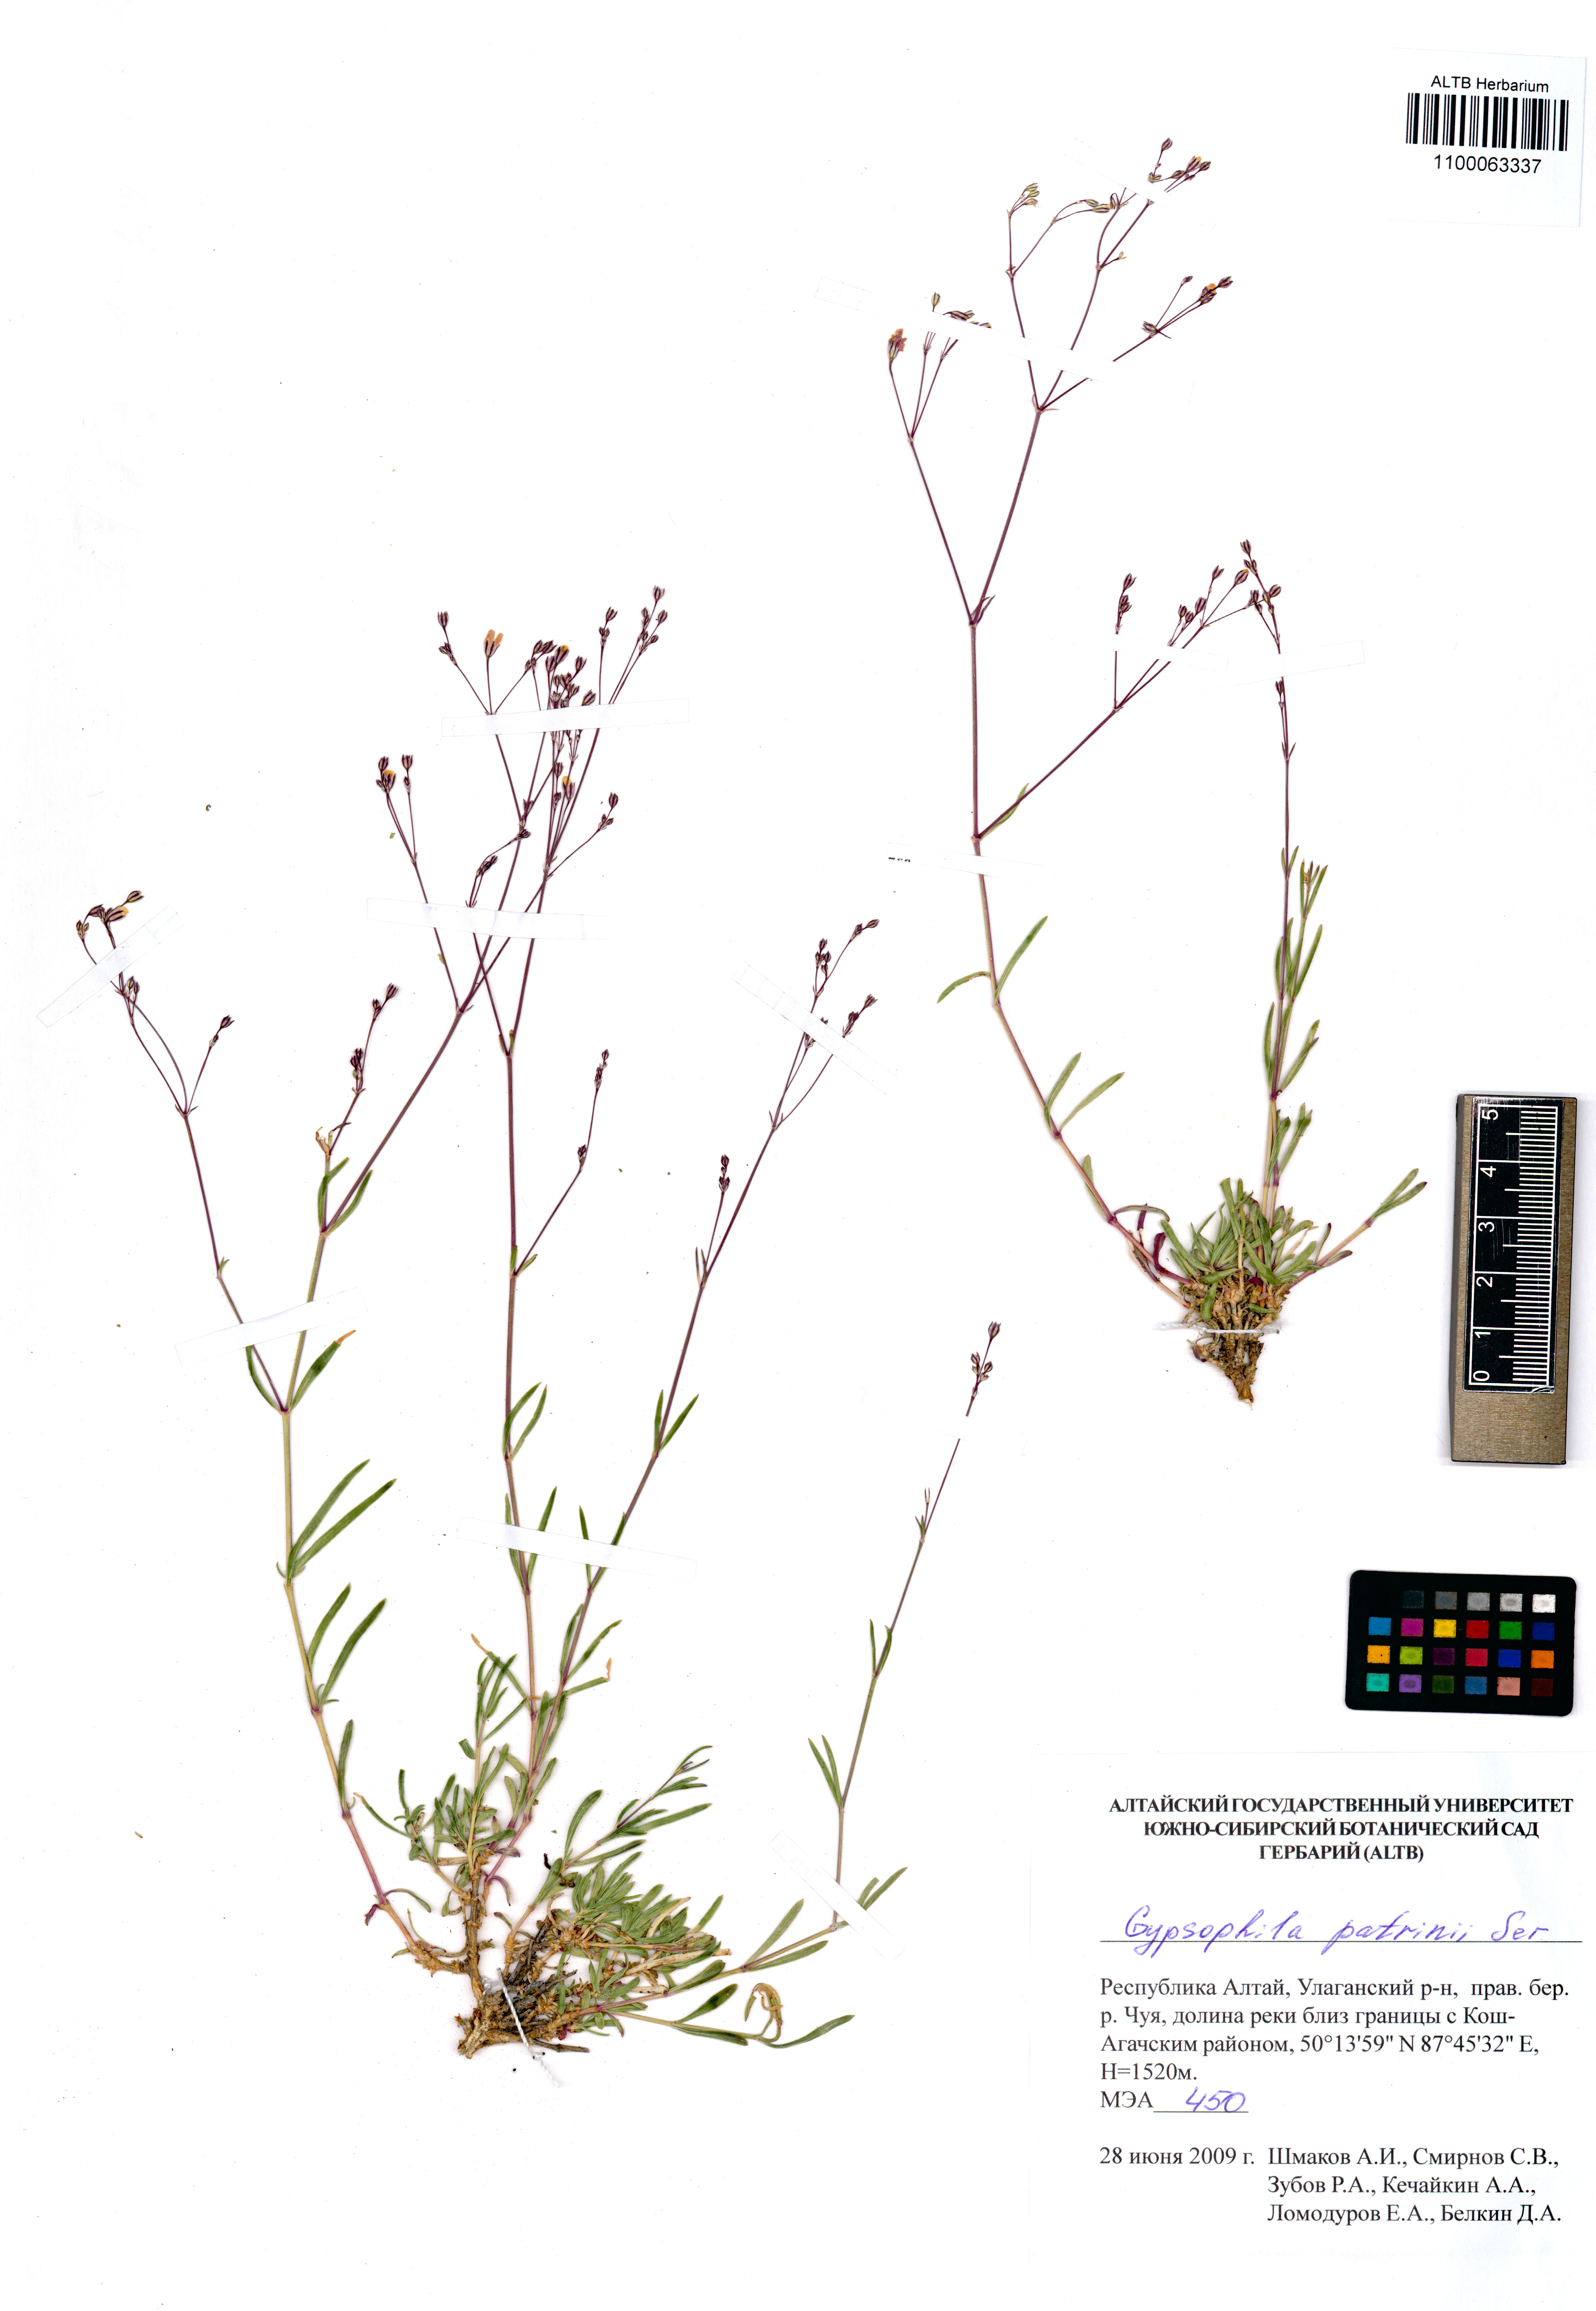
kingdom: Plantae
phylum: Tracheophyta
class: Magnoliopsida
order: Caryophyllales
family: Caryophyllaceae
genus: Gypsophila
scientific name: Gypsophila patrinii
